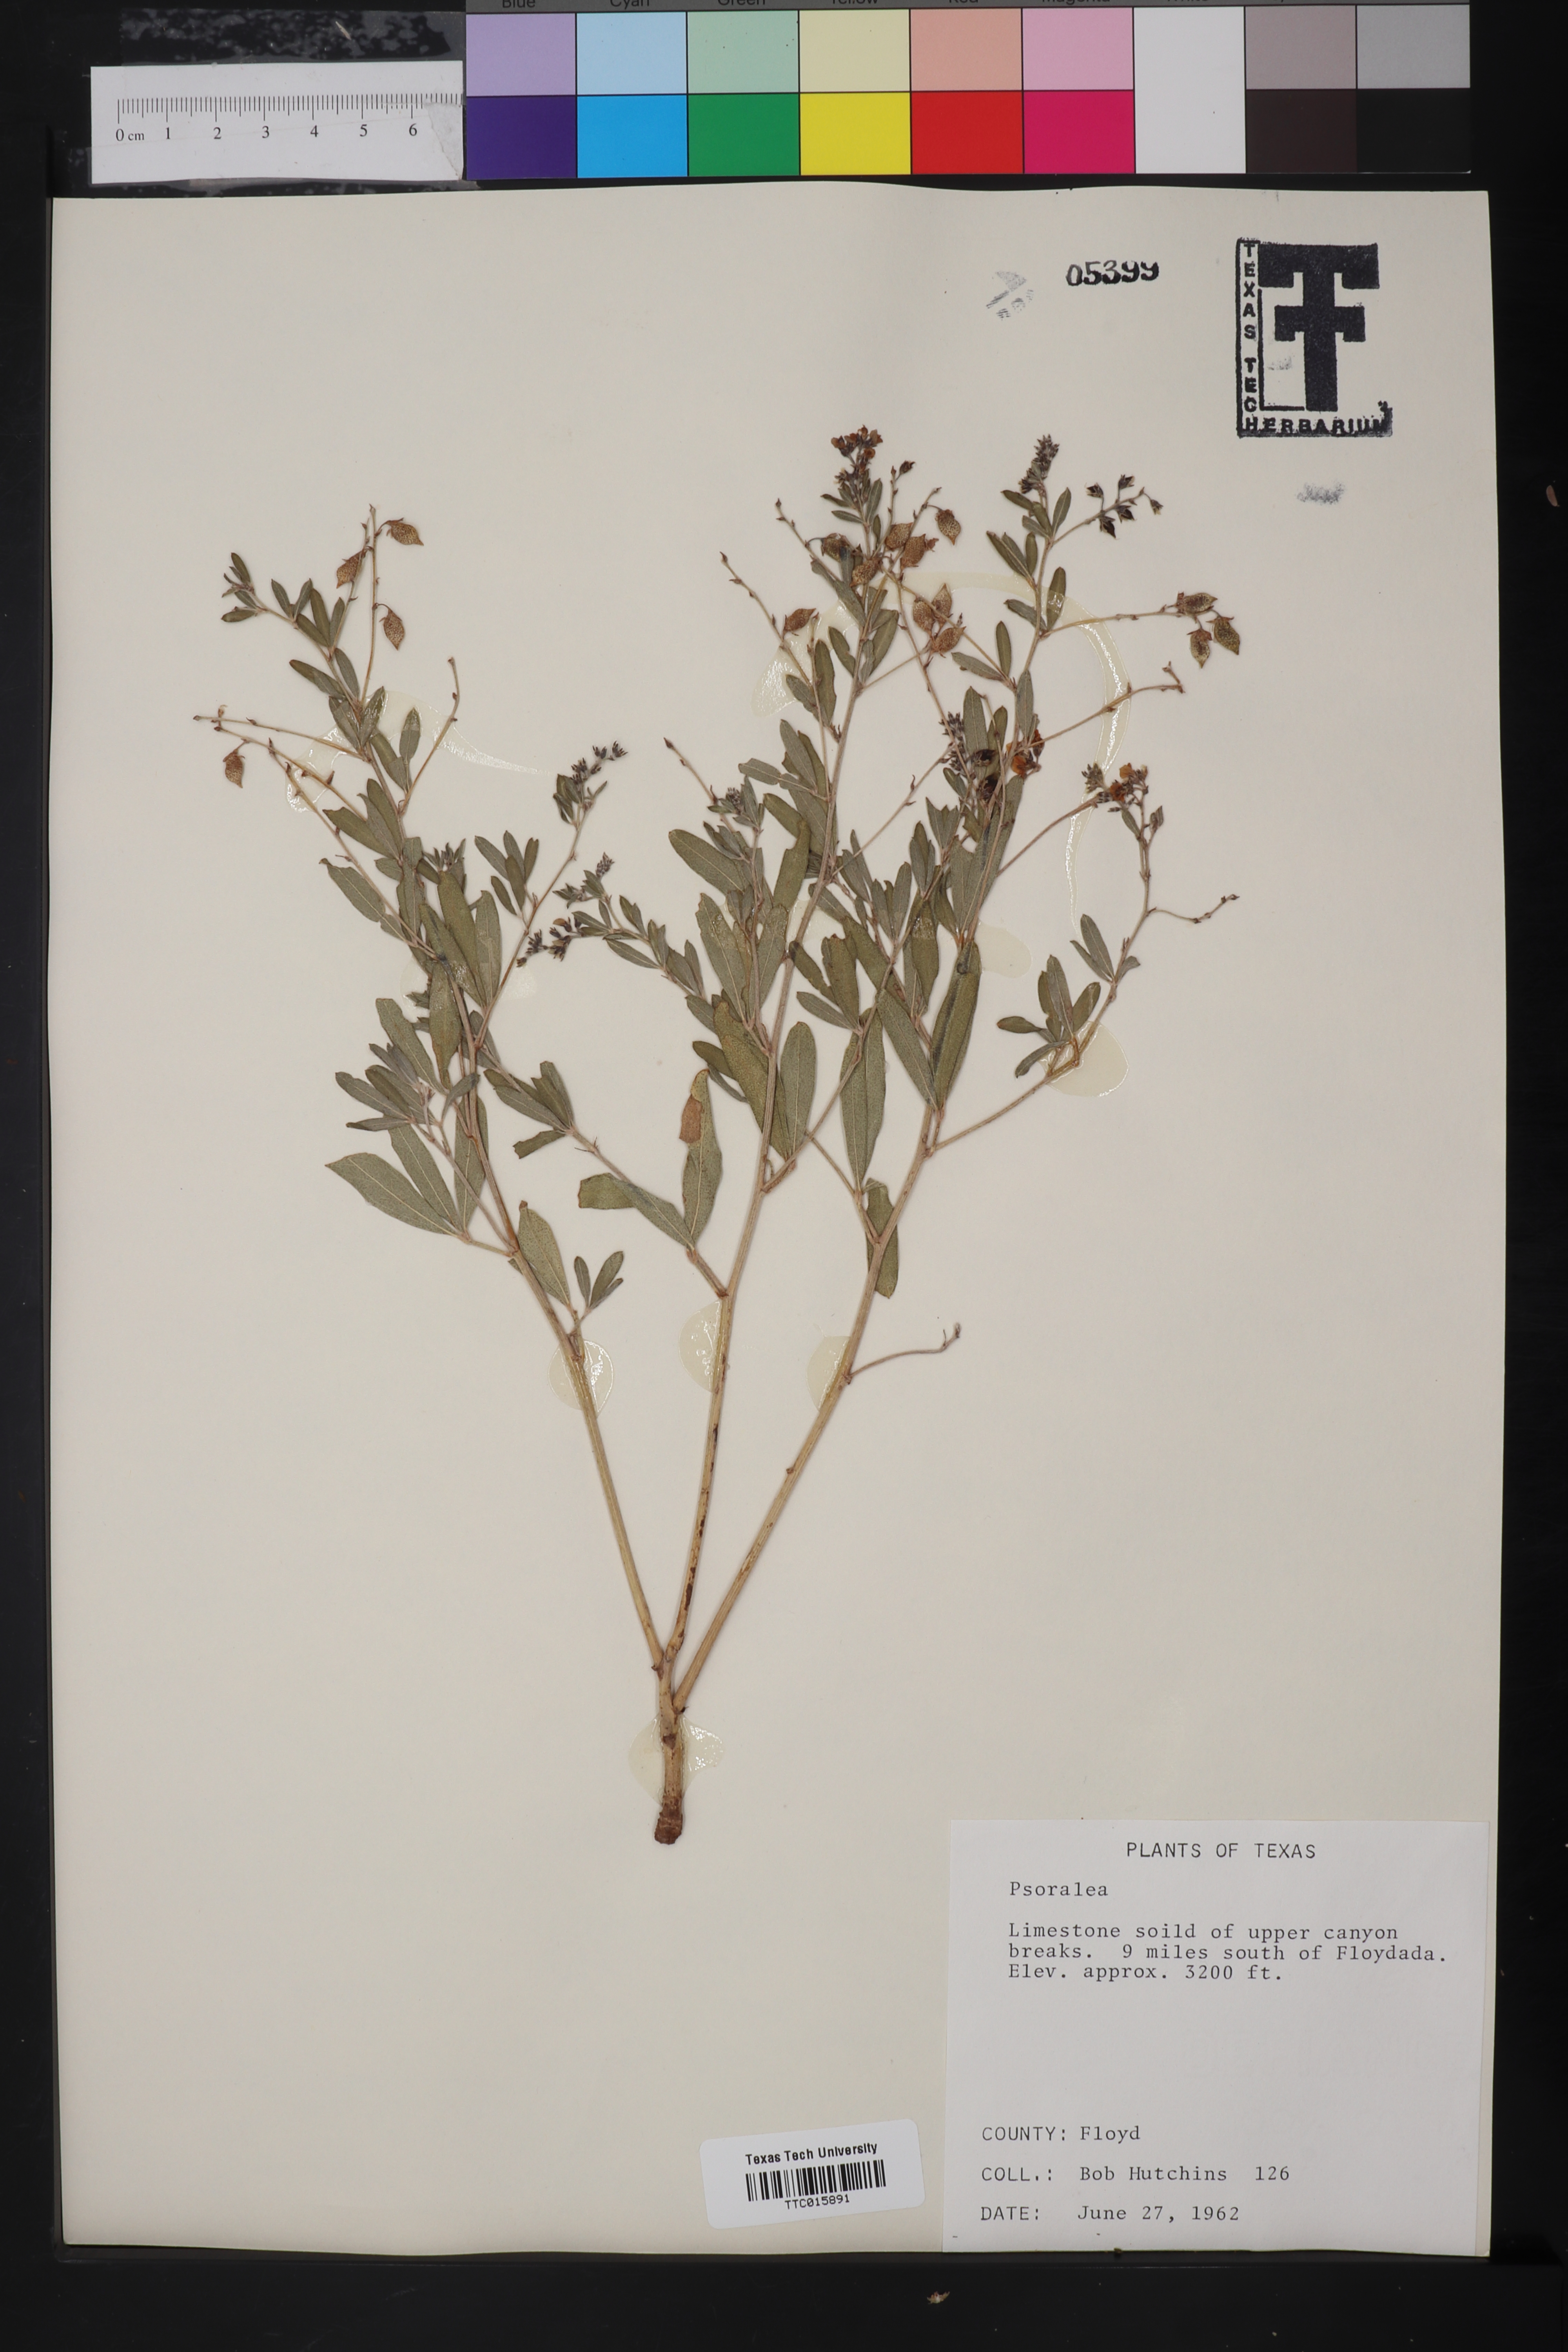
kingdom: Plantae
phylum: Tracheophyta
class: Magnoliopsida
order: Fabales
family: Fabaceae
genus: Psoralea
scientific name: Psoralea
